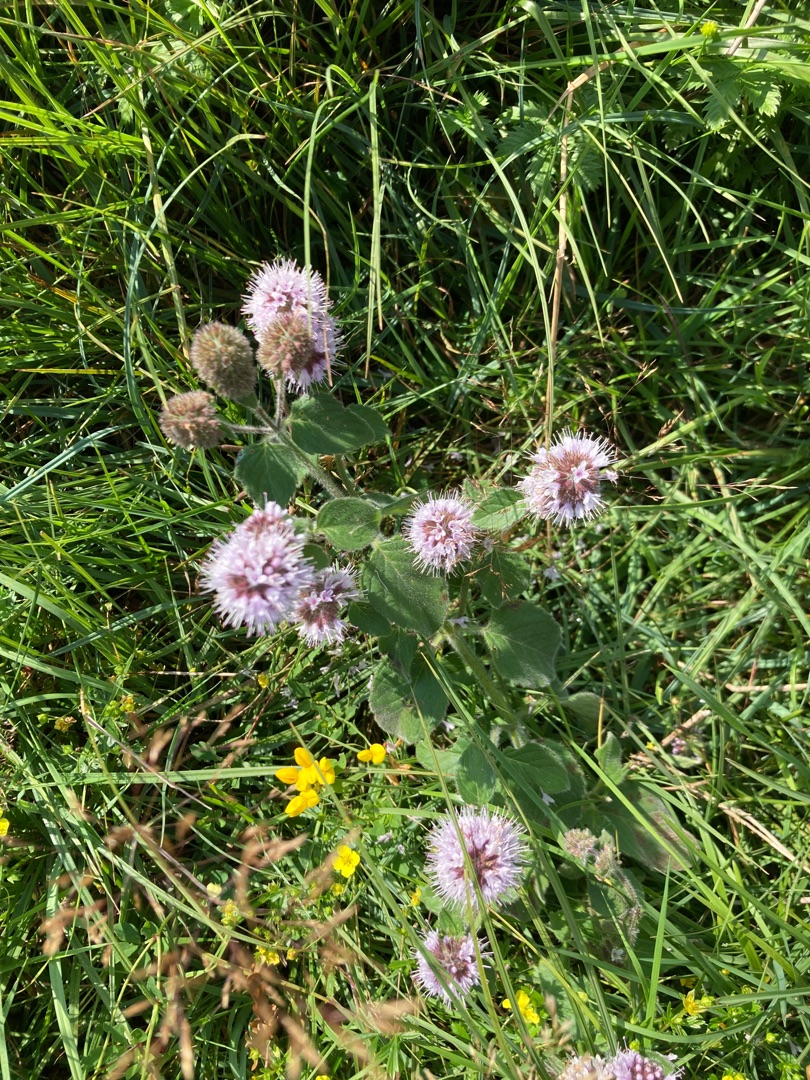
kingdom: Plantae
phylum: Tracheophyta
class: Magnoliopsida
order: Lamiales
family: Lamiaceae
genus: Mentha
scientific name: Mentha aquatica
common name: Vand-mynte
